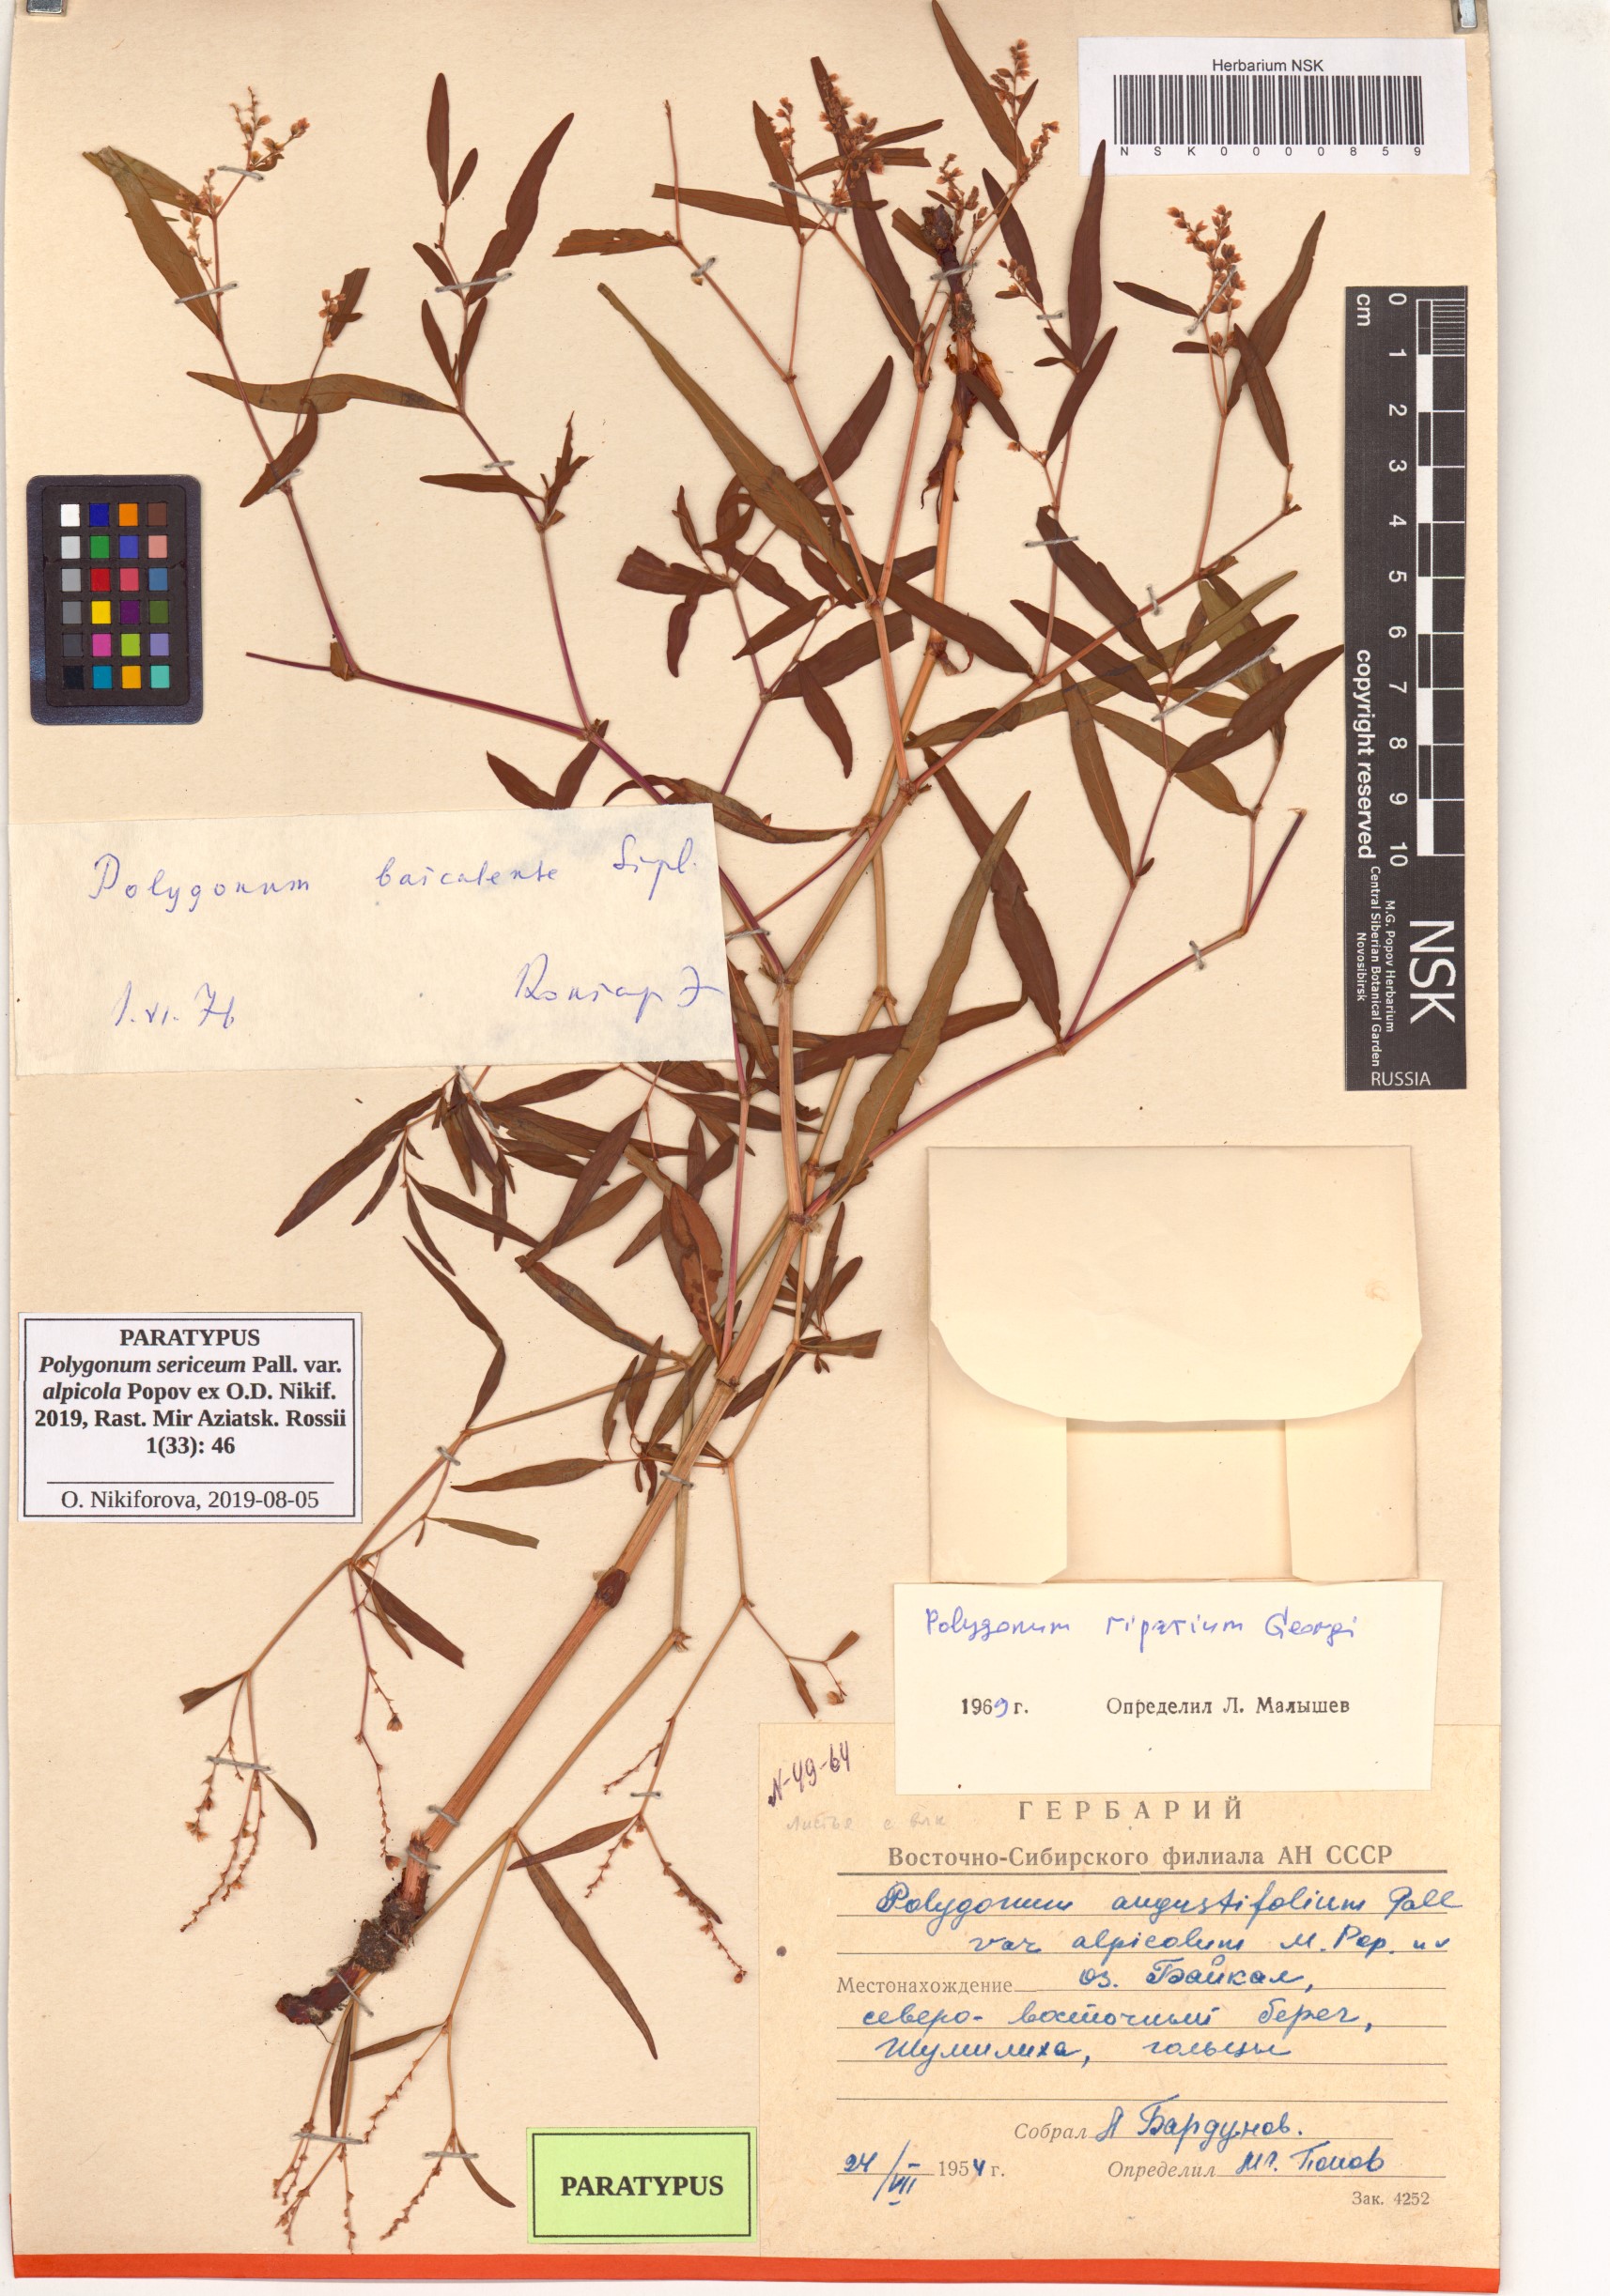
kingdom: Plantae
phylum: Tracheophyta
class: Magnoliopsida
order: Caryophyllales
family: Polygonaceae
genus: Polygonum
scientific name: Polygonum sericeum
